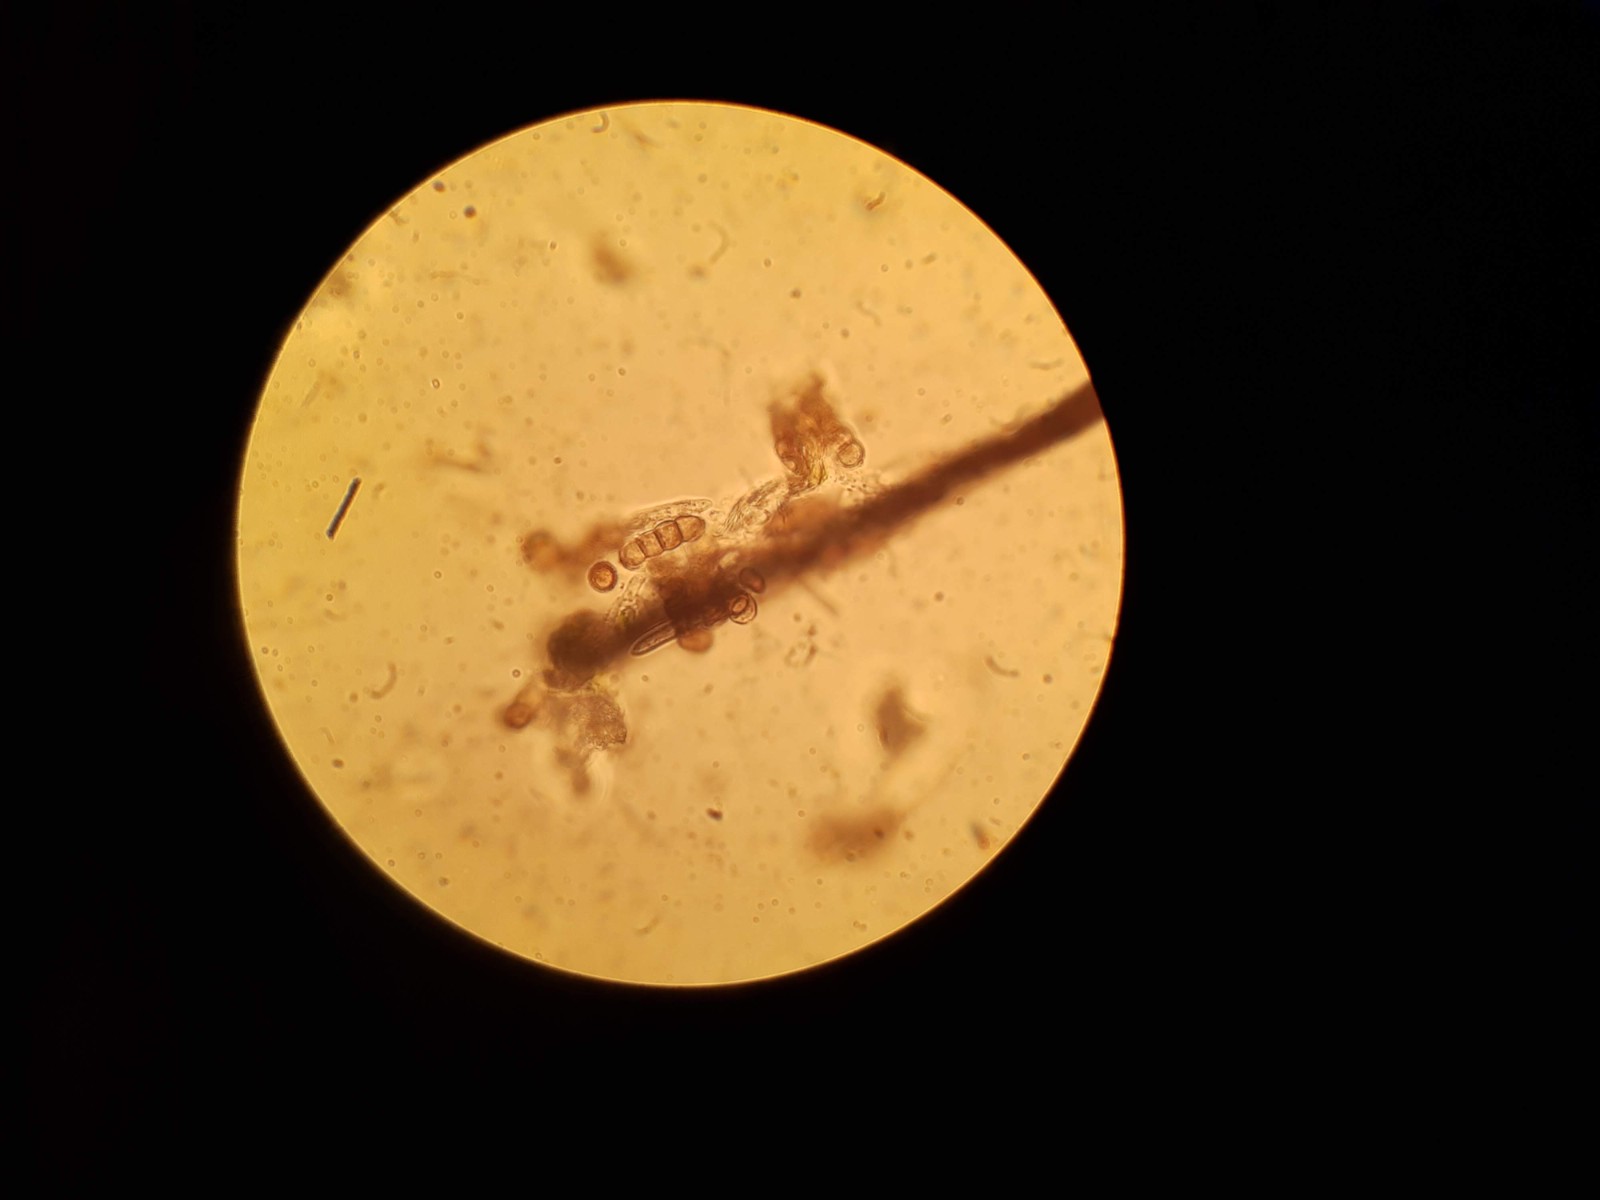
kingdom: Fungi
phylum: Ascomycota
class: Dothideomycetes
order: Pleosporales
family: Torulaceae
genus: Dendryphion
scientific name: Dendryphion comosum
